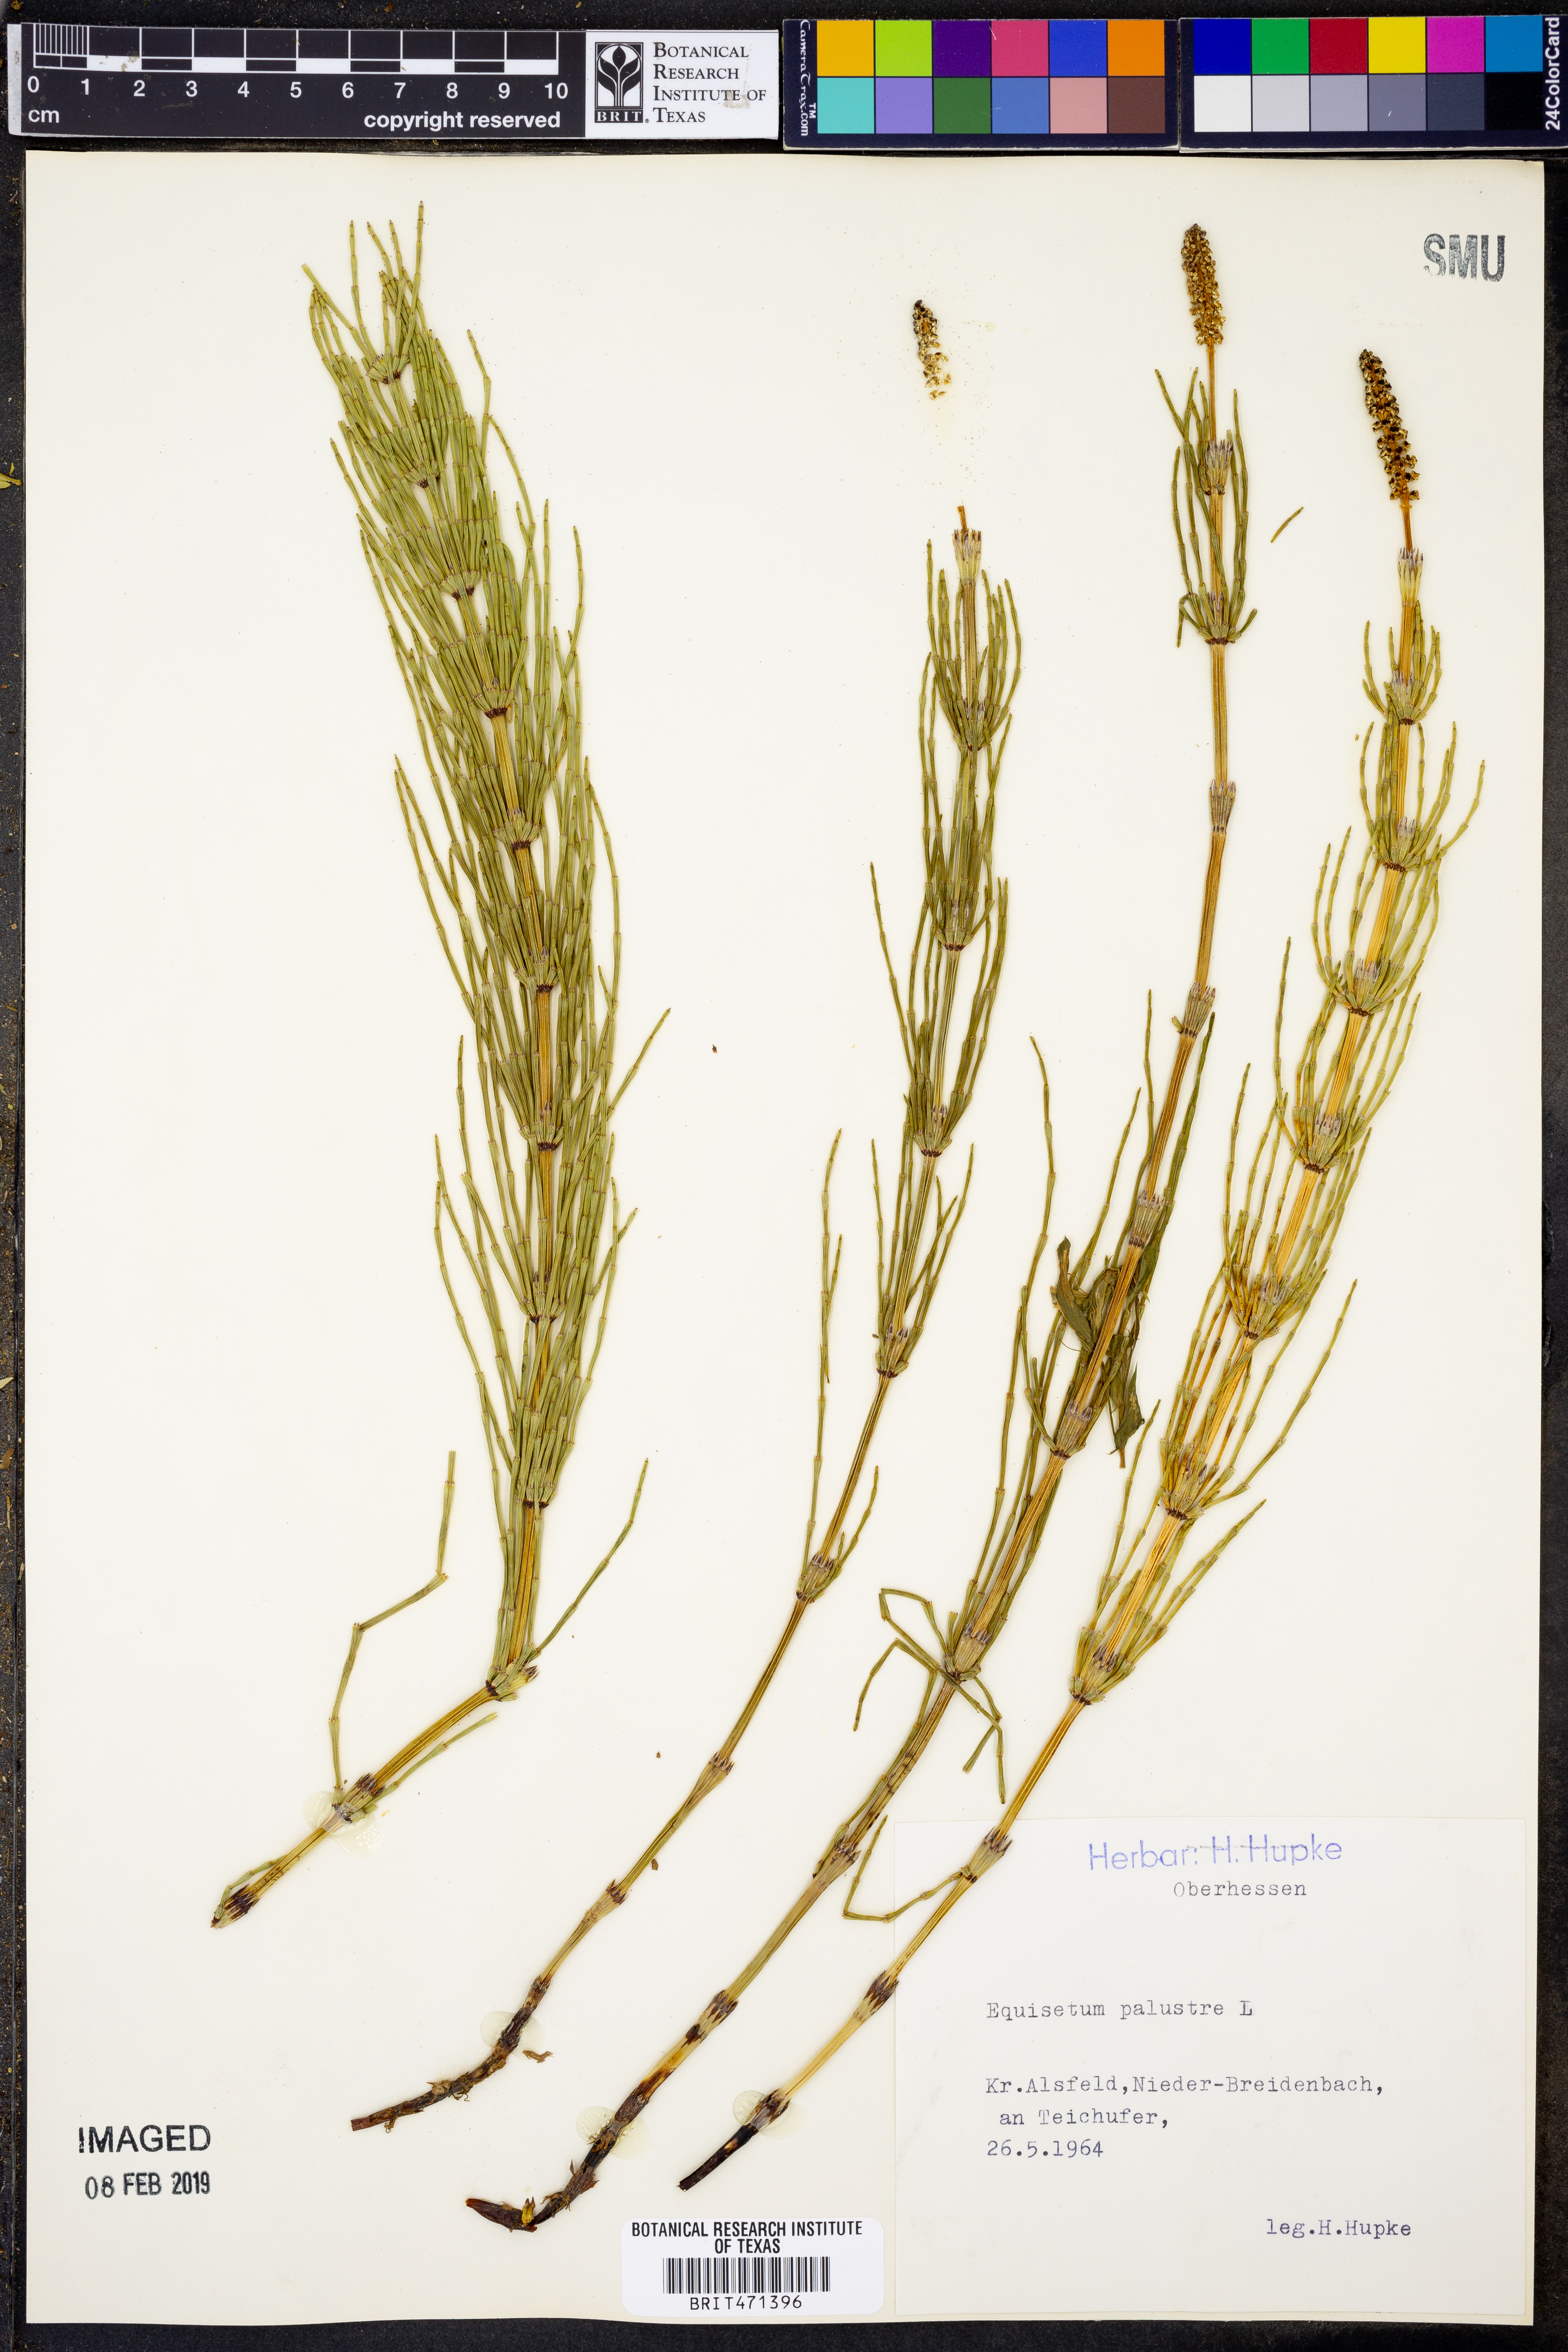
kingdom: Plantae
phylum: Tracheophyta
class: Polypodiopsida
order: Equisetales
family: Equisetaceae
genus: Equisetum
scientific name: Equisetum palustre
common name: Marsh horsetail
